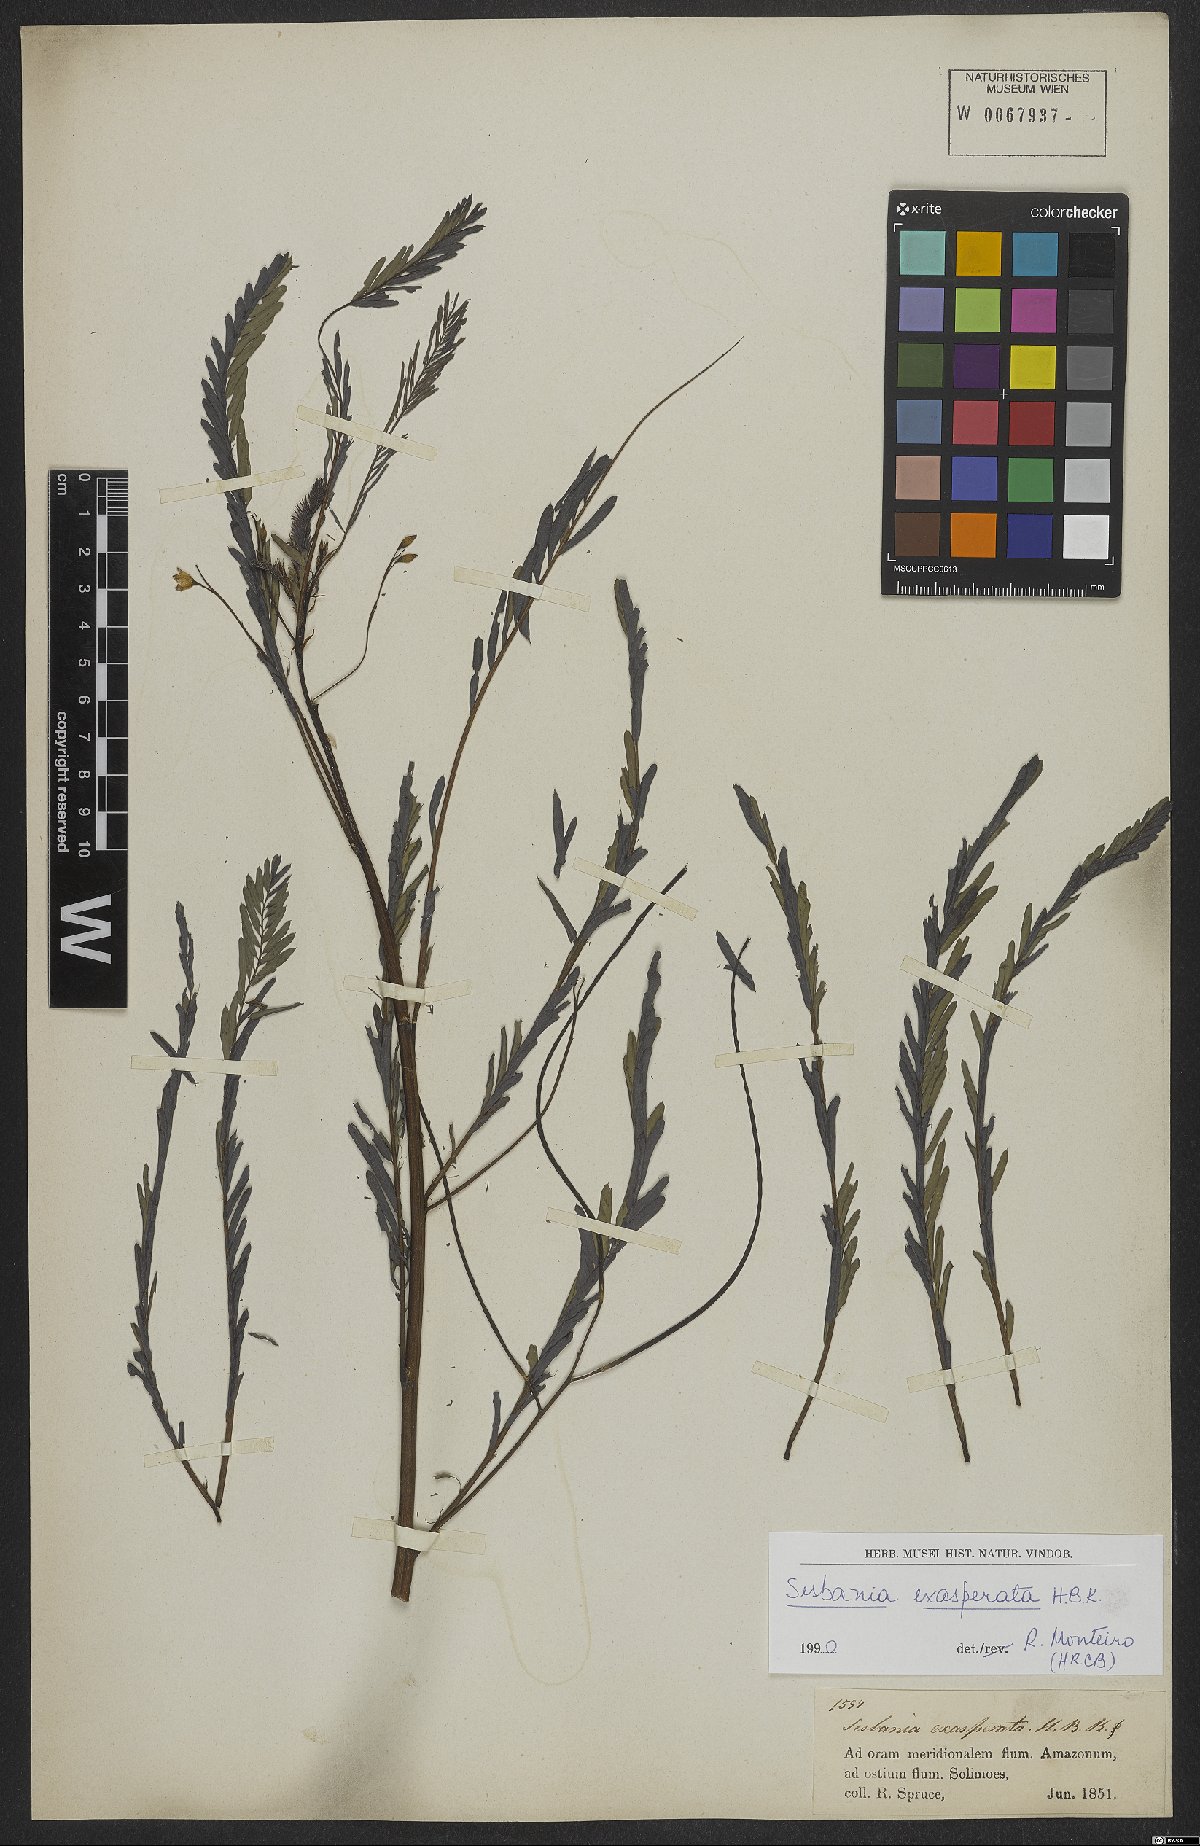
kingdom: Plantae
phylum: Tracheophyta
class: Magnoliopsida
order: Fabales
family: Fabaceae
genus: Sesbania
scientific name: Sesbania exasperata
